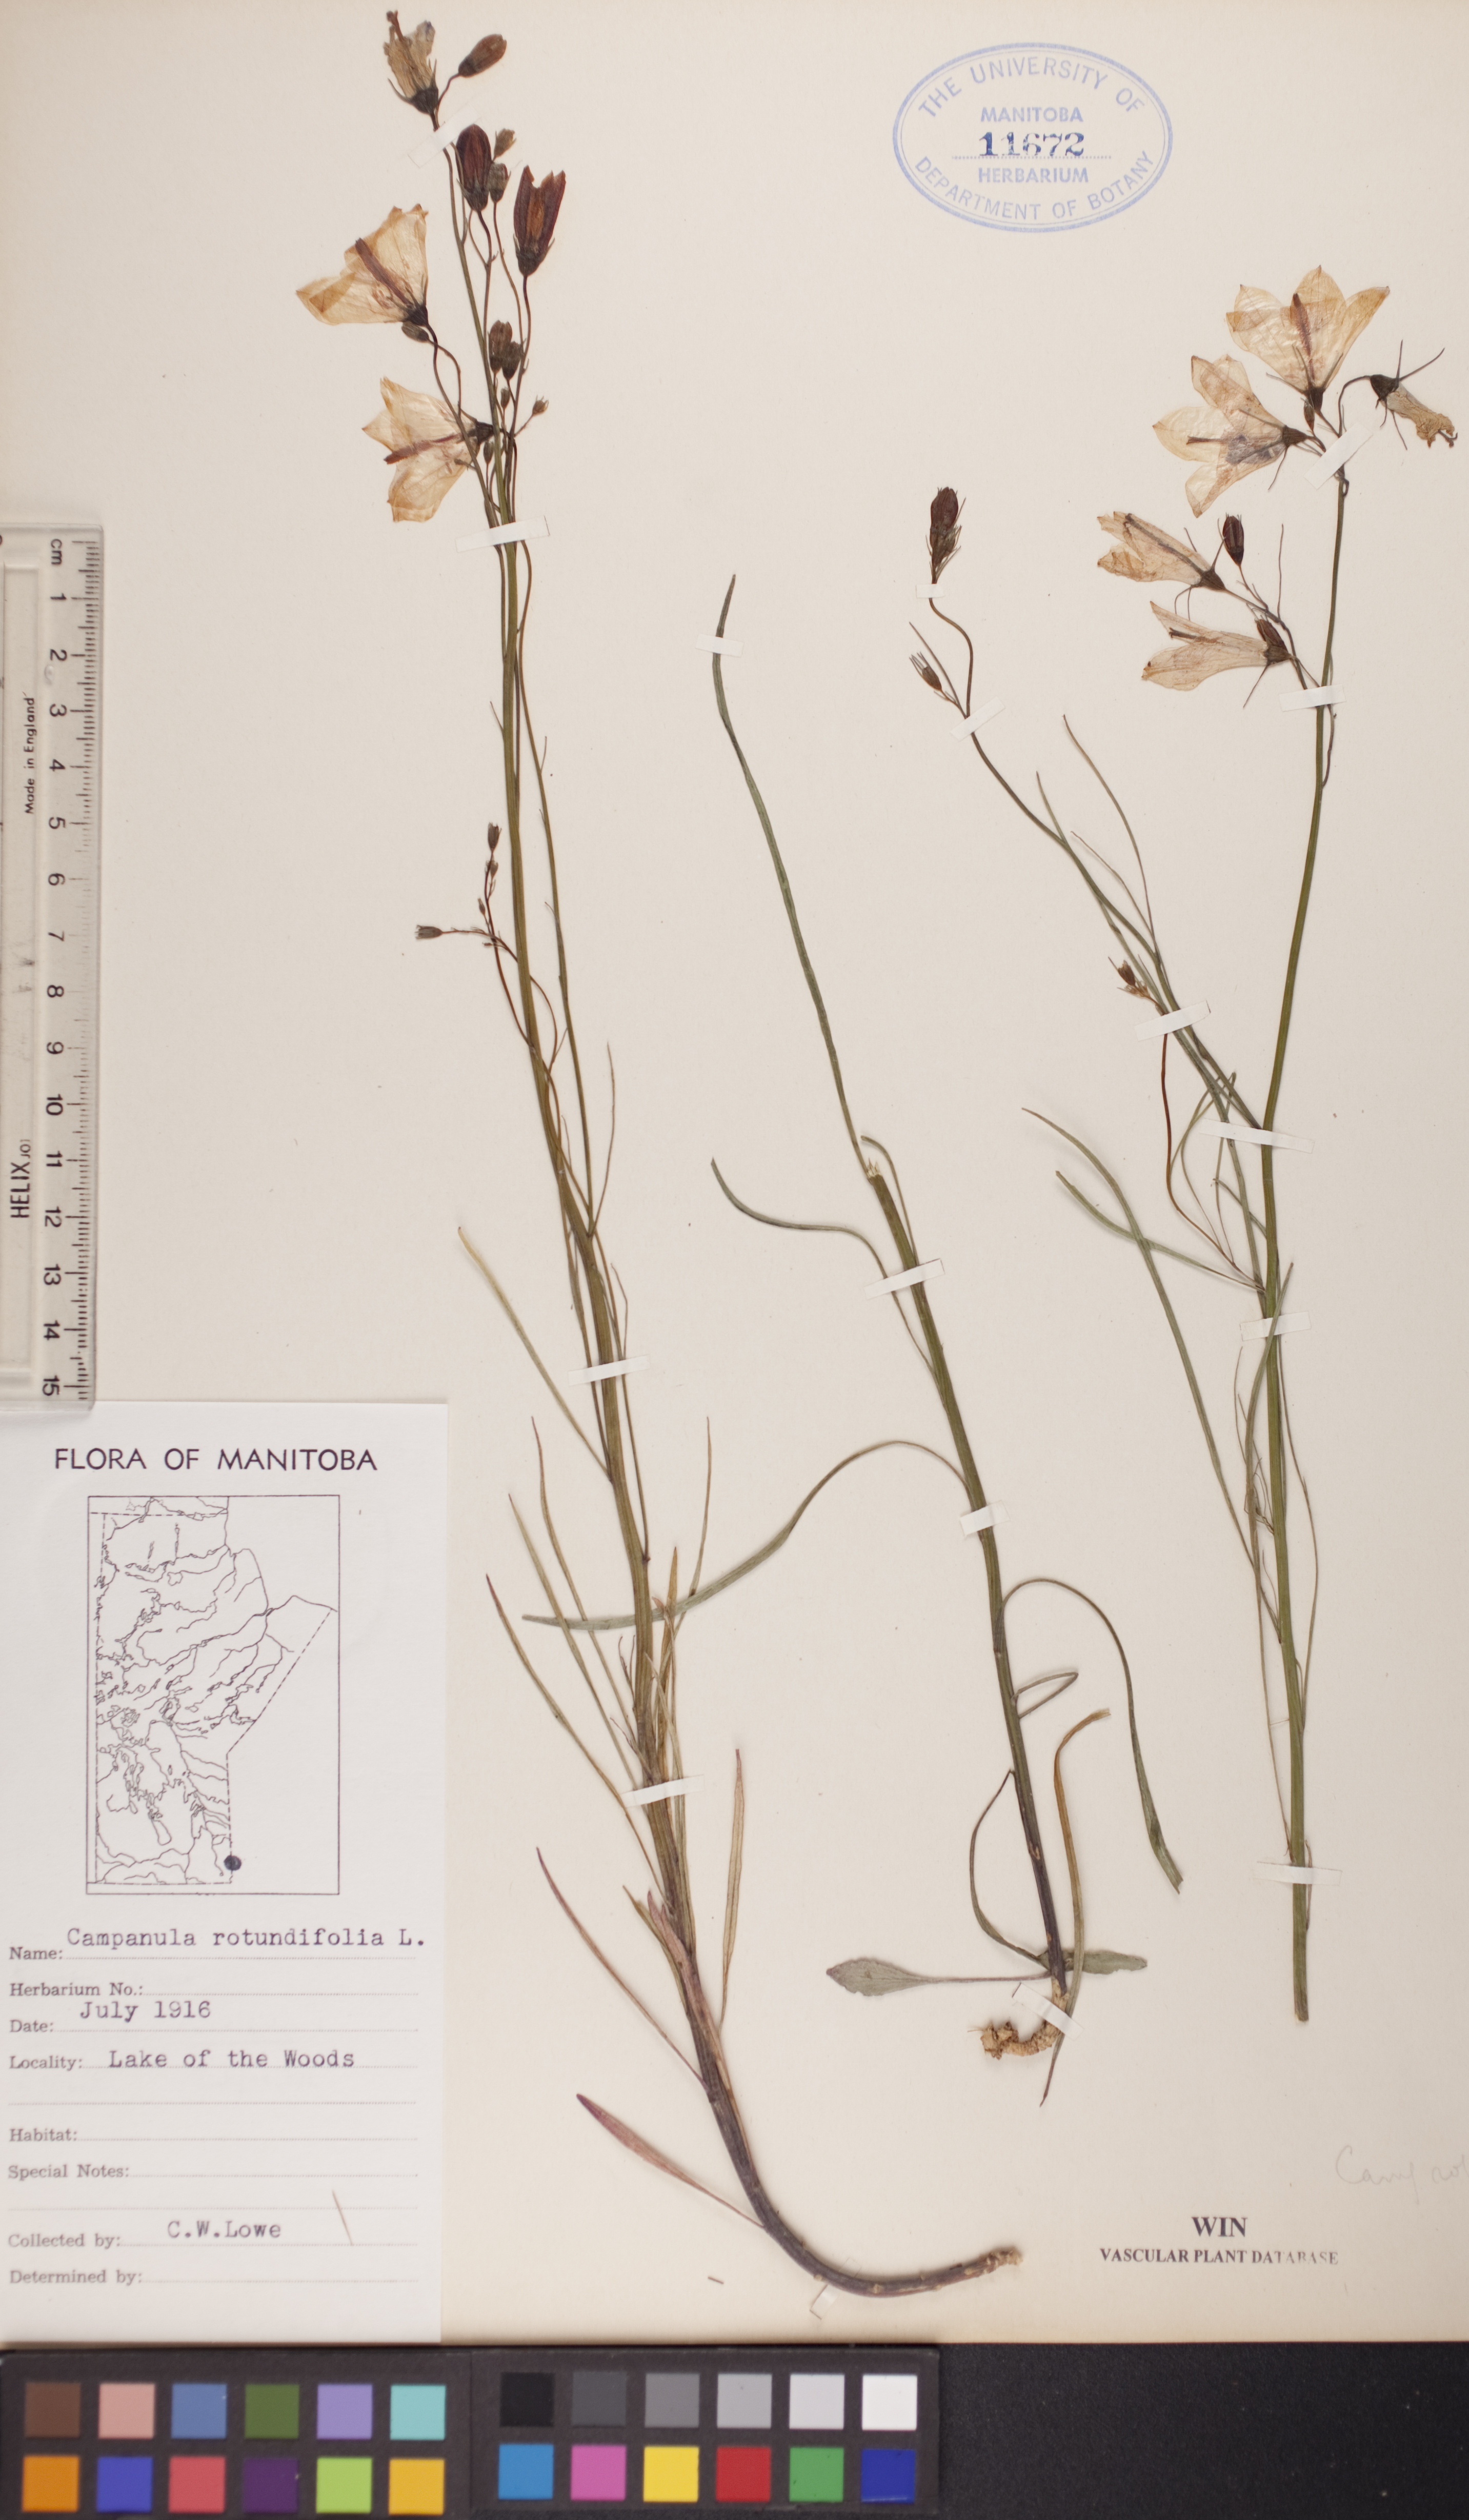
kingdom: Plantae
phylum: Tracheophyta
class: Magnoliopsida
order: Asterales
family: Campanulaceae
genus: Campanula
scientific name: Campanula rotundifolia
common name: Harebell
